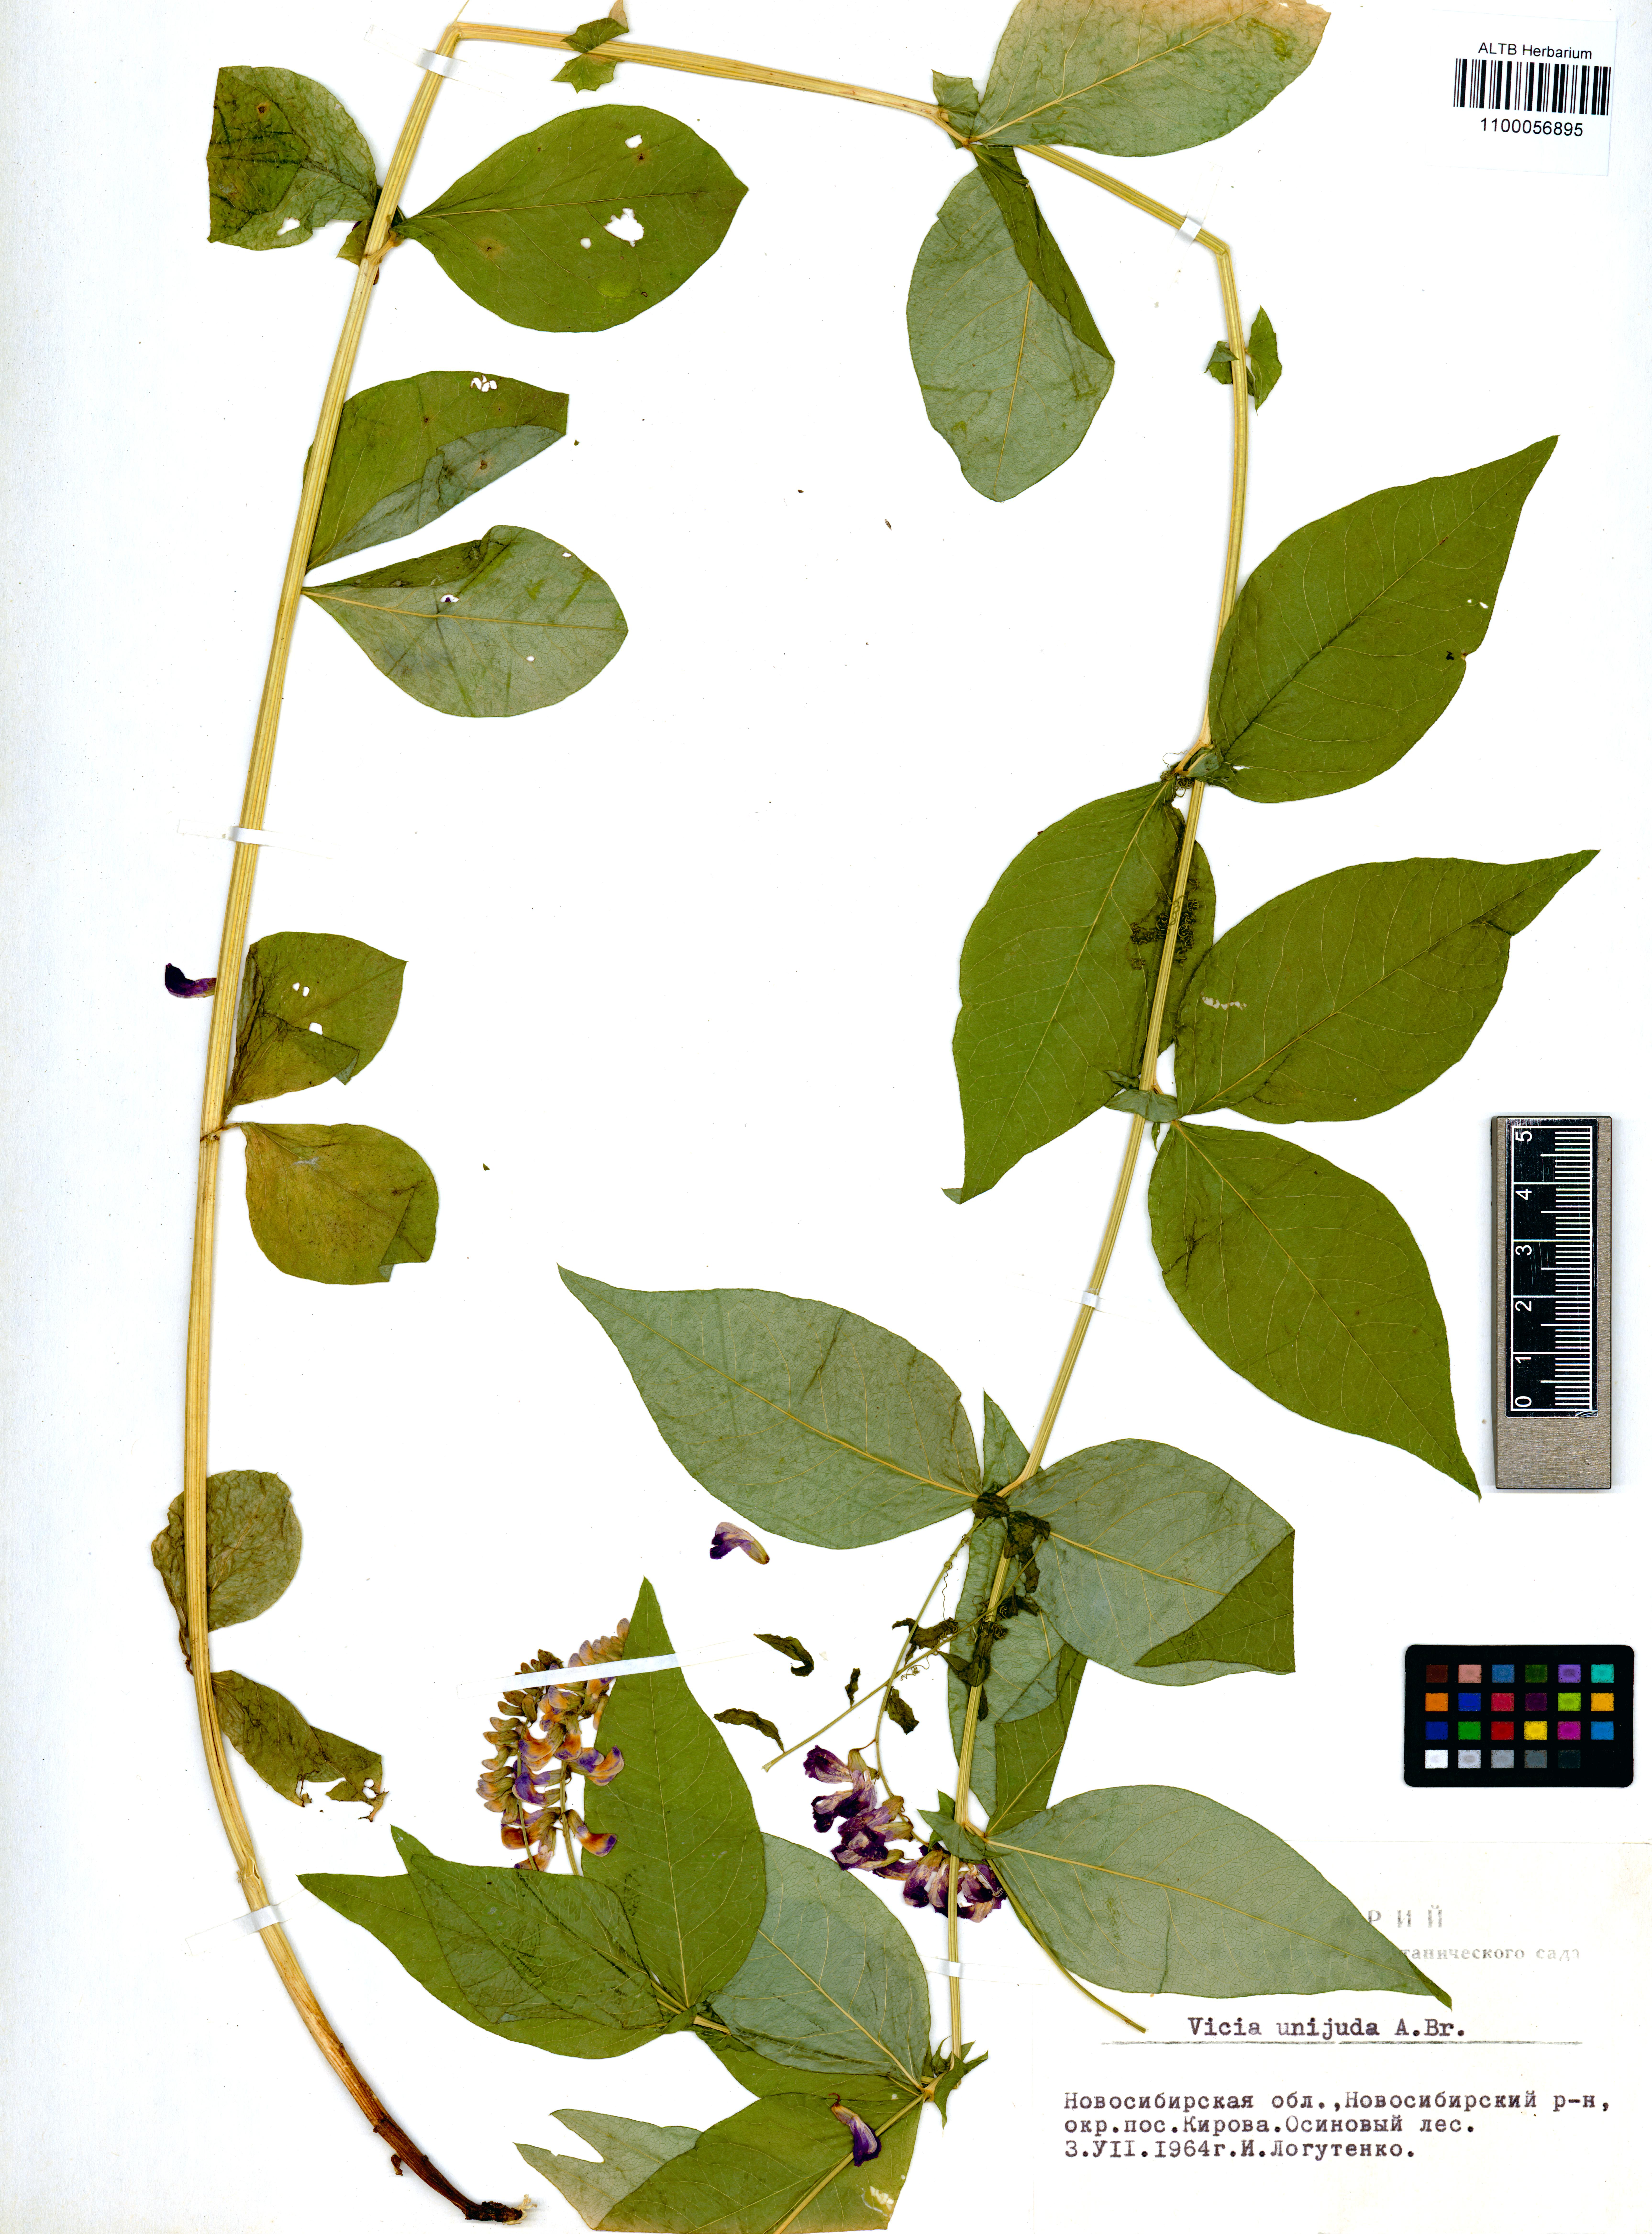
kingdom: Plantae
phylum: Tracheophyta
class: Magnoliopsida
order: Fabales
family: Fabaceae
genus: Vicia
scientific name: Vicia unijuga
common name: Two-leaf vetch
